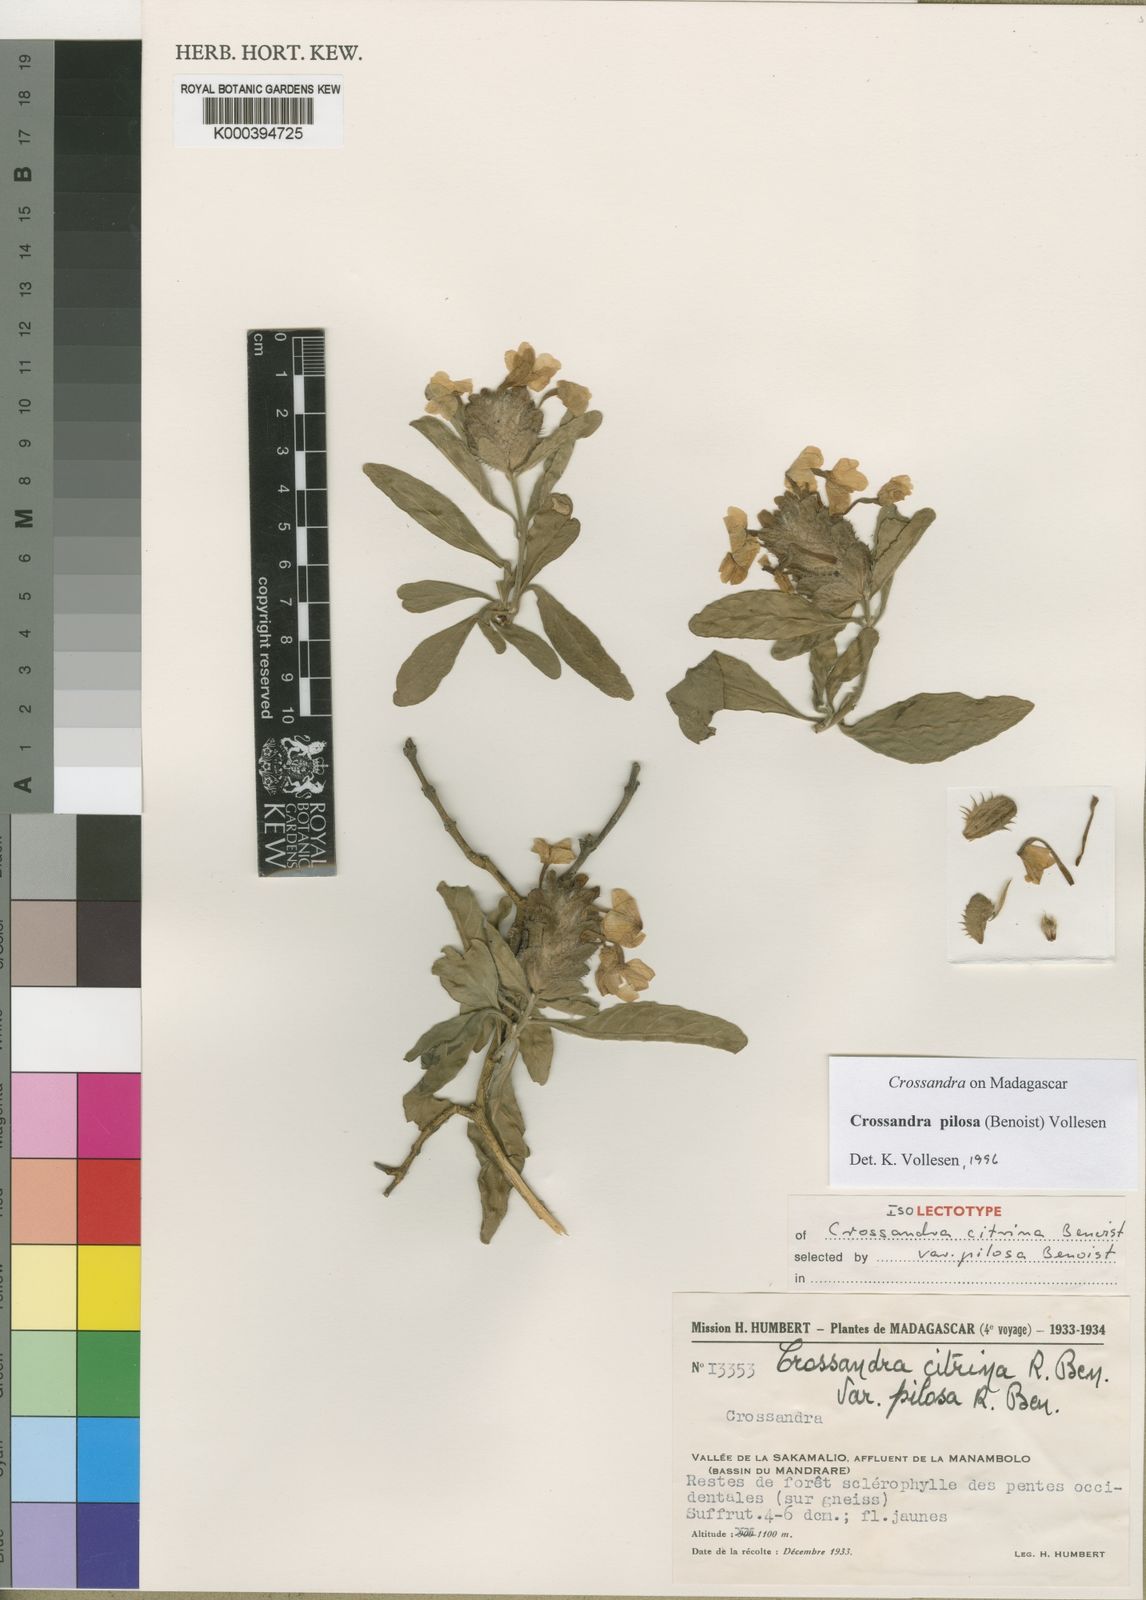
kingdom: Plantae
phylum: Tracheophyta
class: Magnoliopsida
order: Lamiales
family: Acanthaceae
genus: Crossandra
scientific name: Crossandra pilosa
